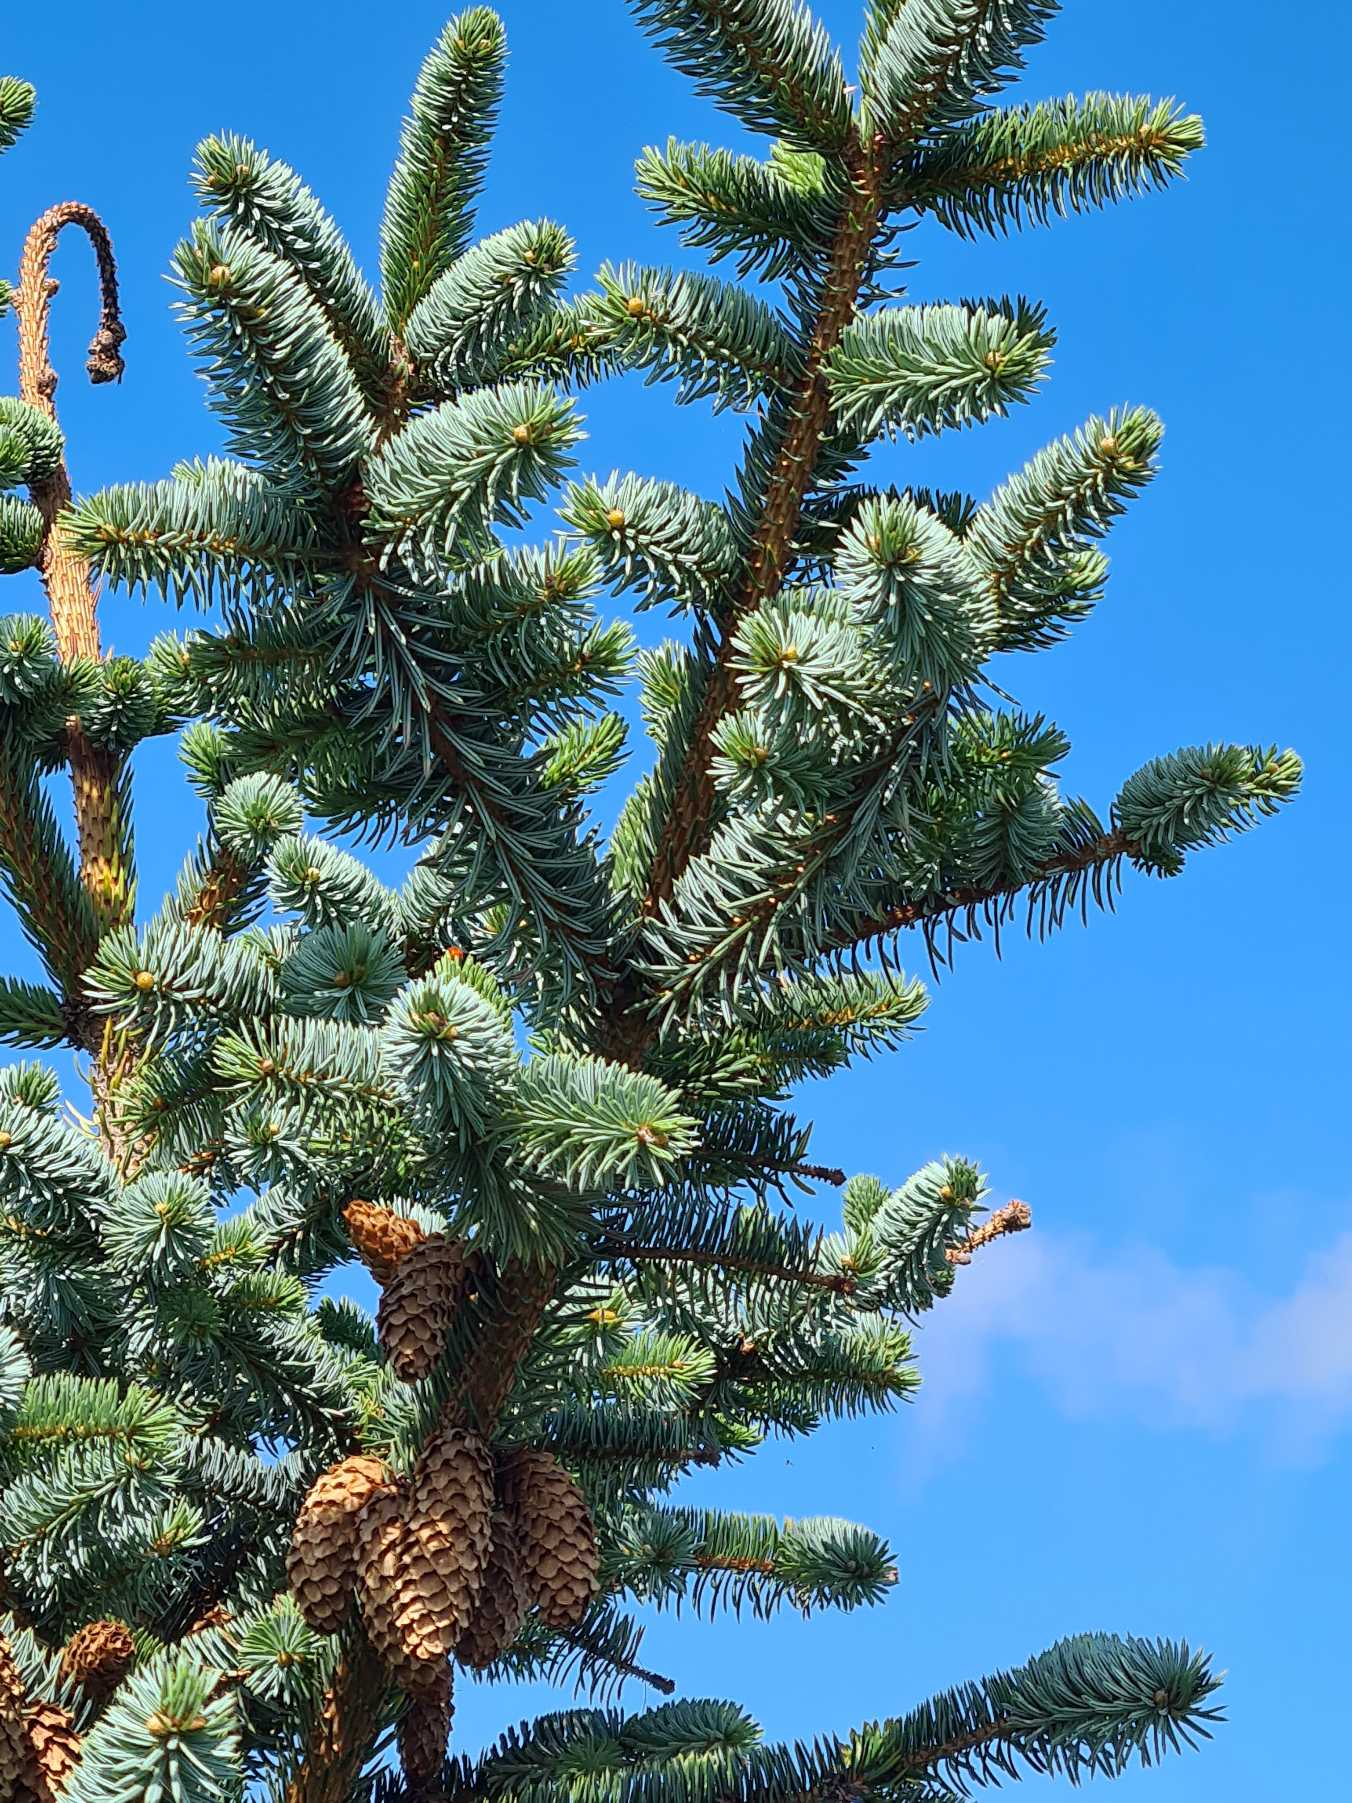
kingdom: Plantae
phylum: Tracheophyta
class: Pinopsida
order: Pinales
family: Pinaceae
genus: Picea
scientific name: Picea pungens
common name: Blå-gran
